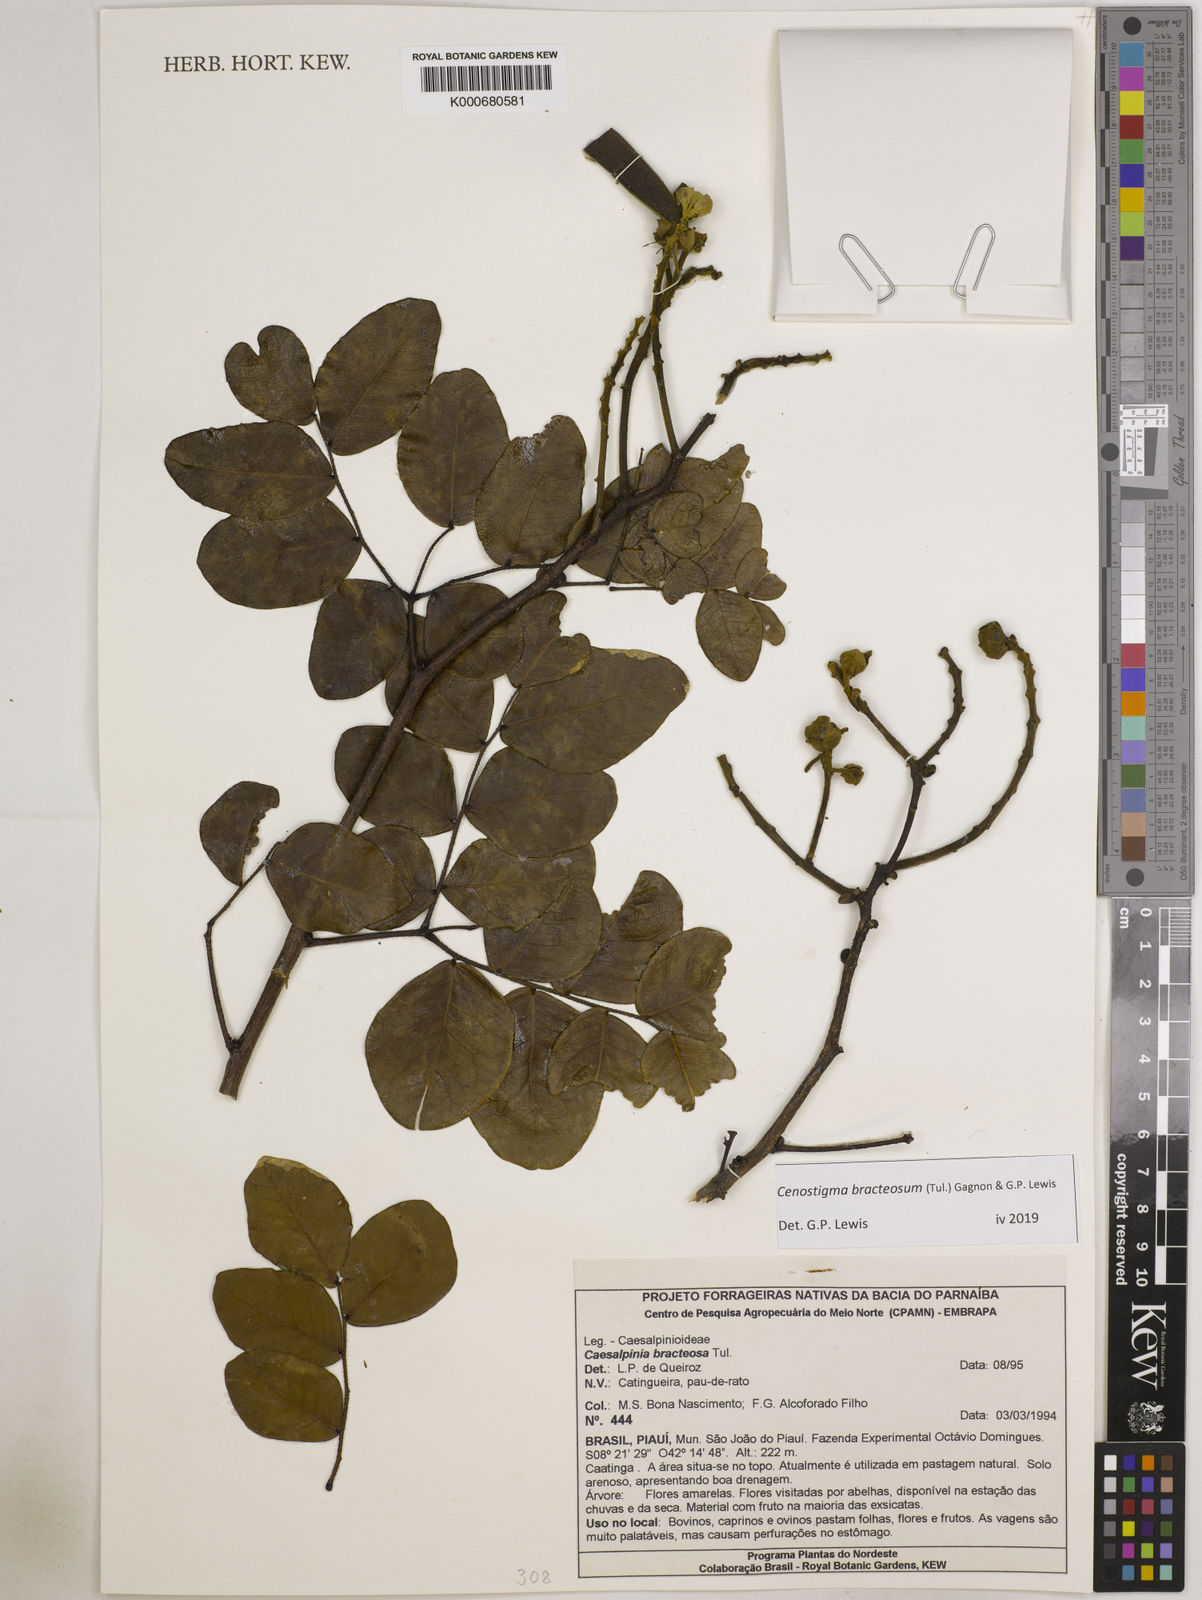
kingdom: Plantae
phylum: Tracheophyta
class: Magnoliopsida
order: Fabales
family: Fabaceae
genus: Cenostigma
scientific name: Cenostigma bracteosum
